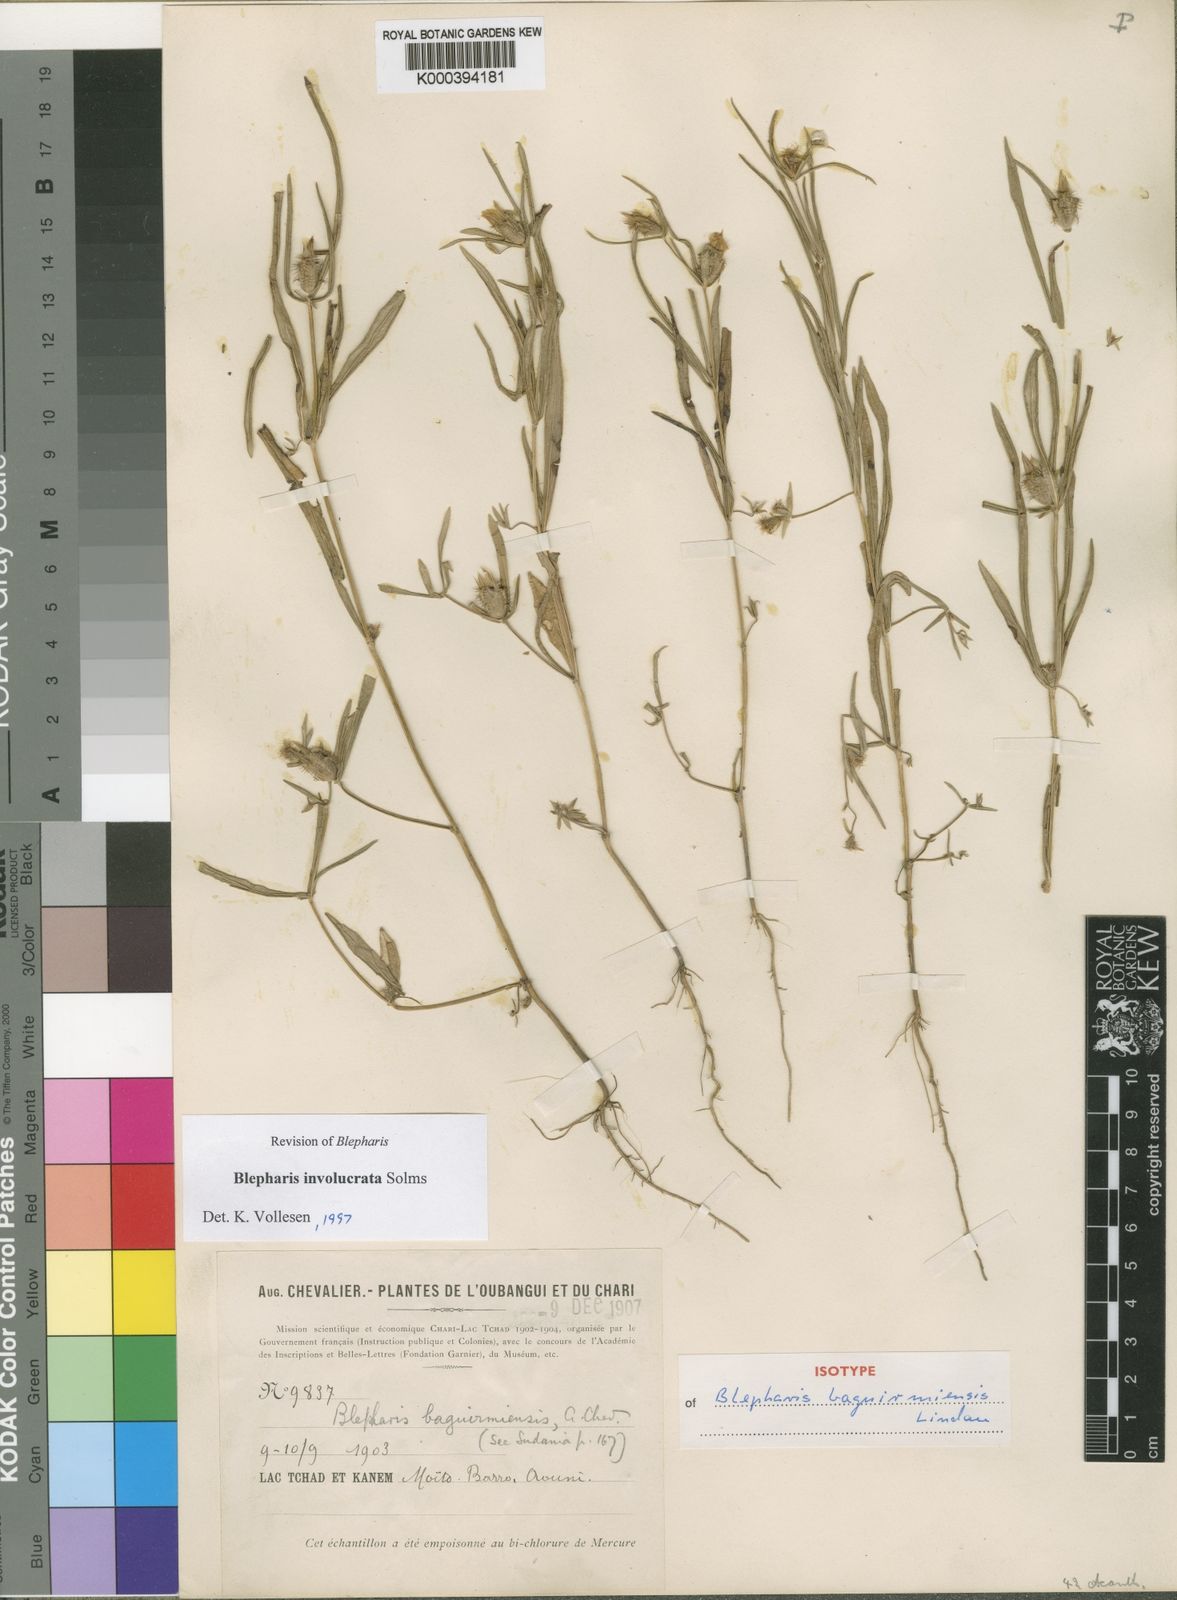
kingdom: Plantae
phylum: Tracheophyta
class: Magnoliopsida
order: Lamiales
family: Acanthaceae
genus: Blepharis
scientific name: Blepharis
